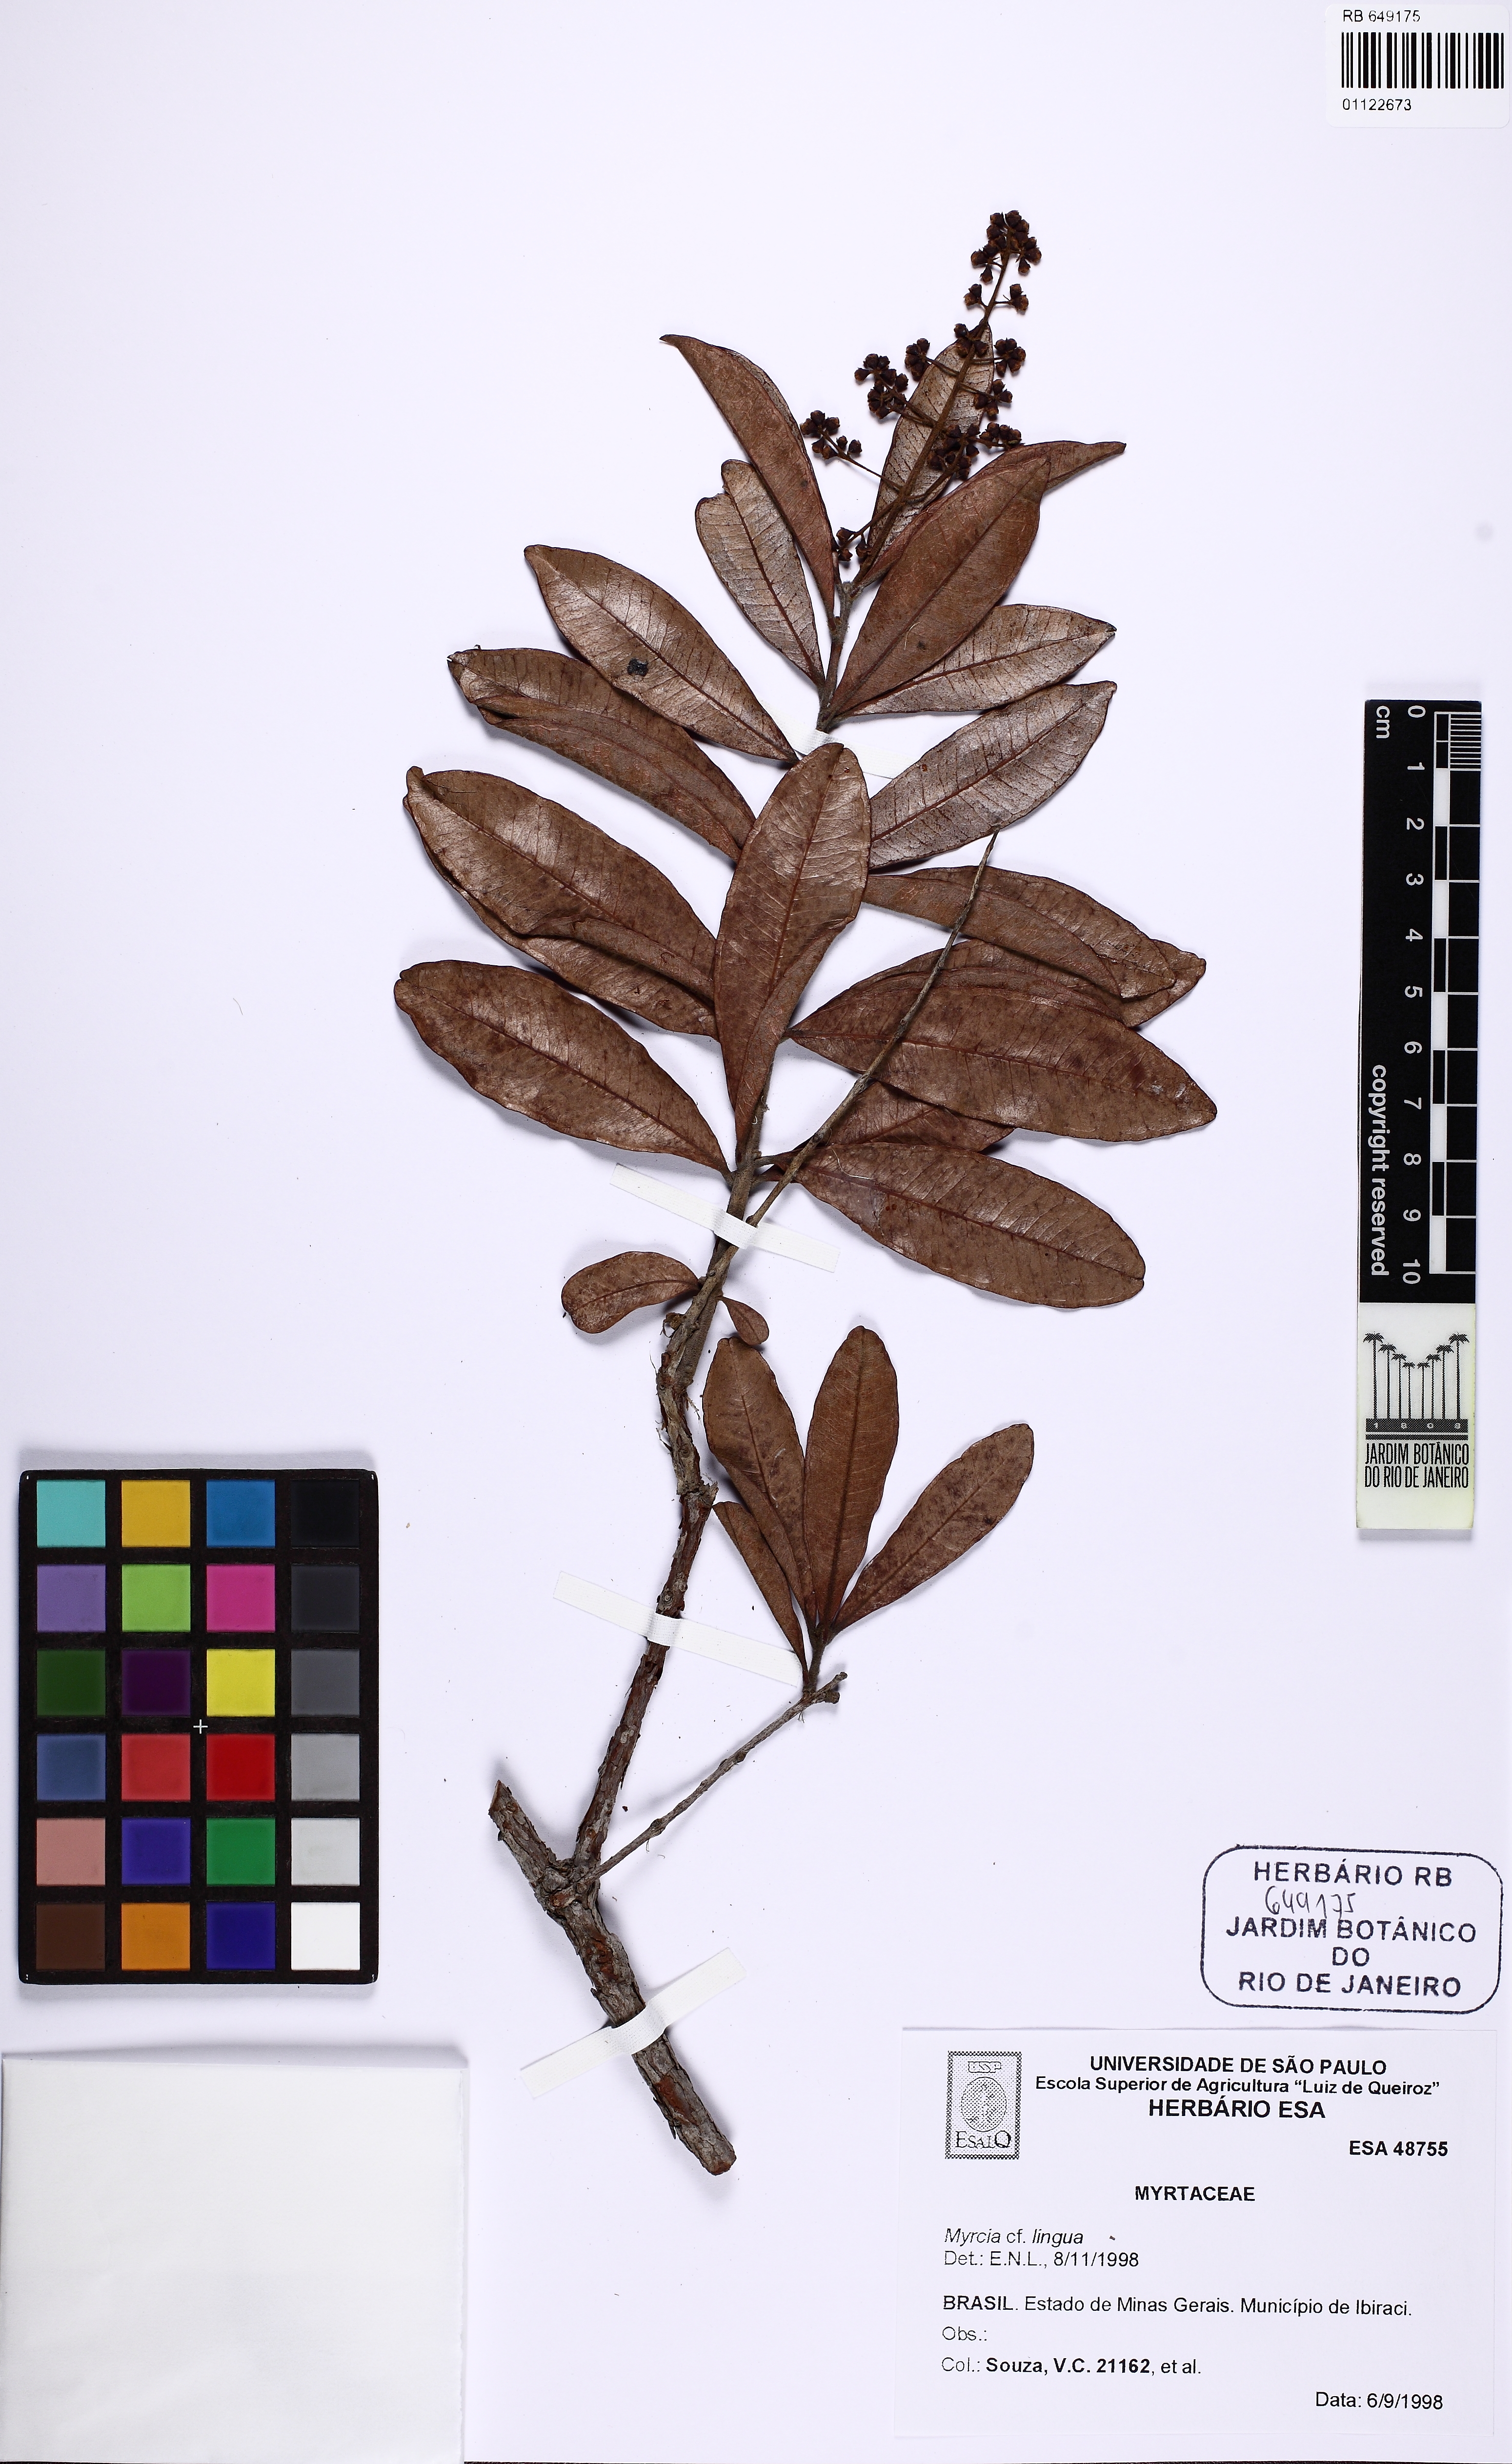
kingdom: Plantae
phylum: Tracheophyta
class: Magnoliopsida
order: Myrtales
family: Myrtaceae
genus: Myrcia
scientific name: Myrcia subalpestris
